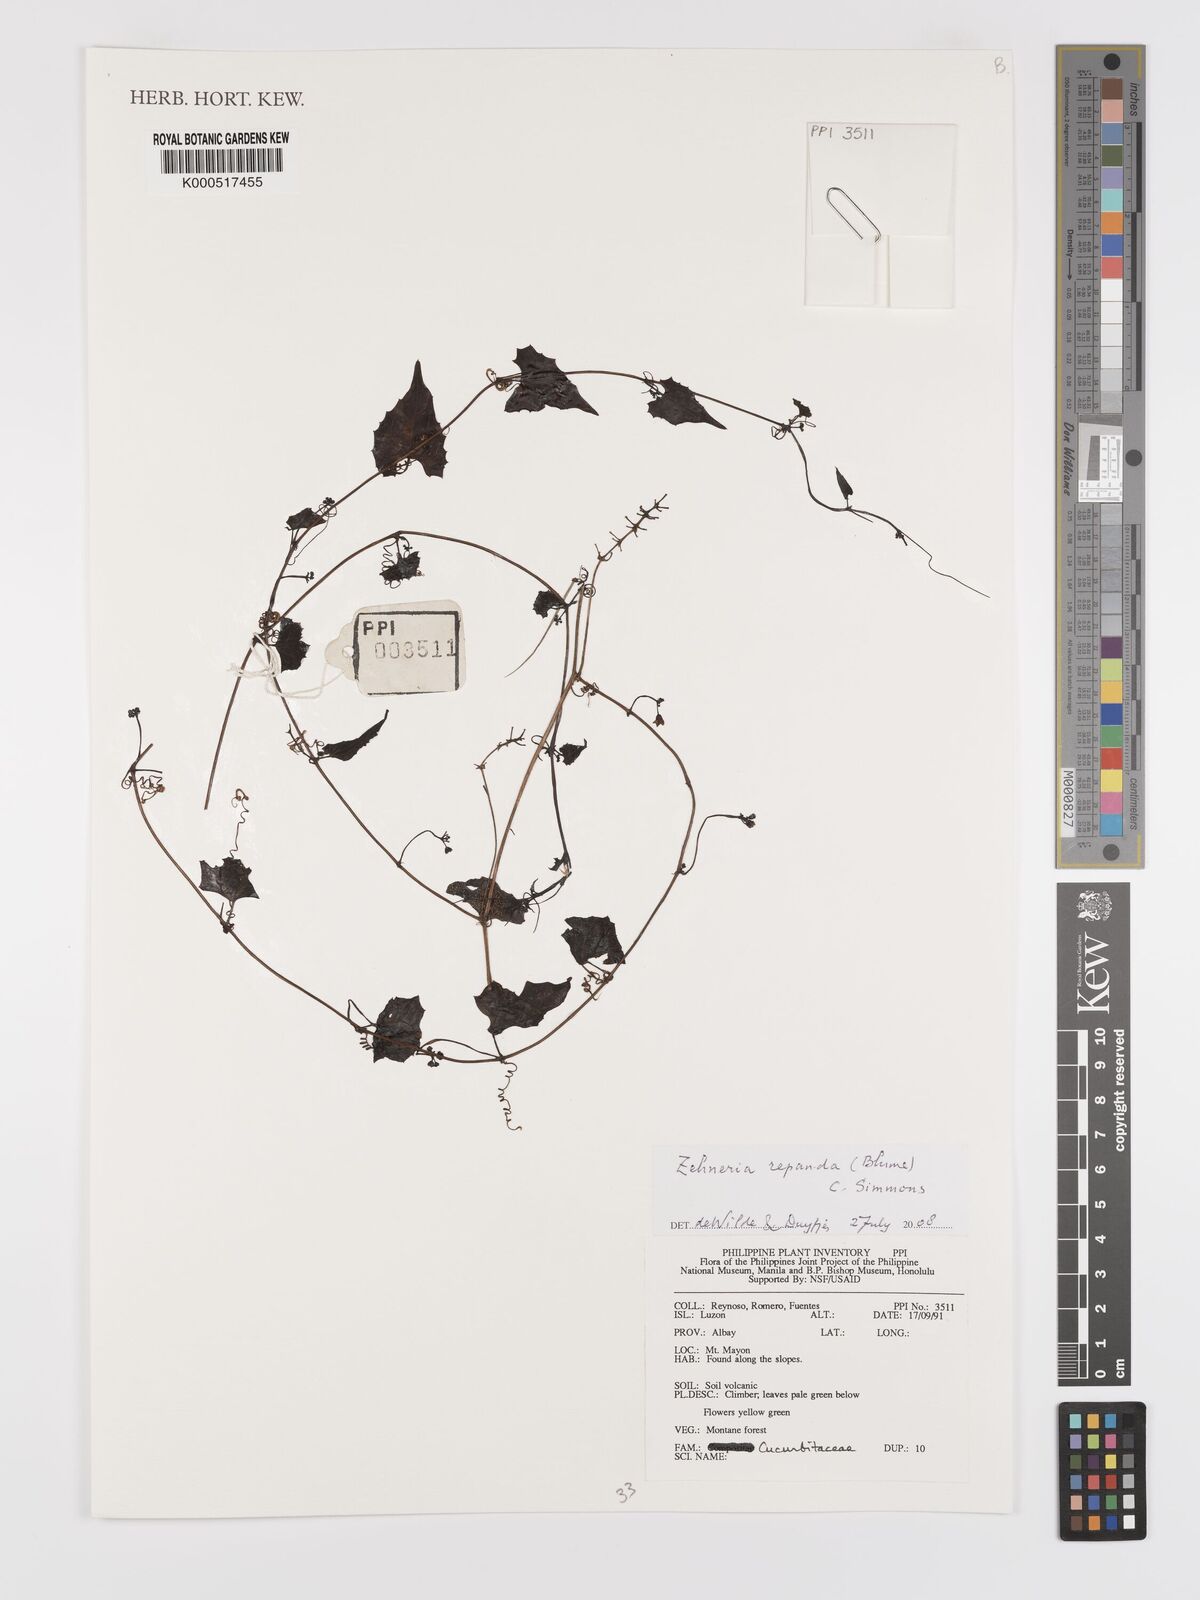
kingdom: Plantae
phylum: Tracheophyta
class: Magnoliopsida
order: Cucurbitales
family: Cucurbitaceae
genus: Zehneria
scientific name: Zehneria repanda
